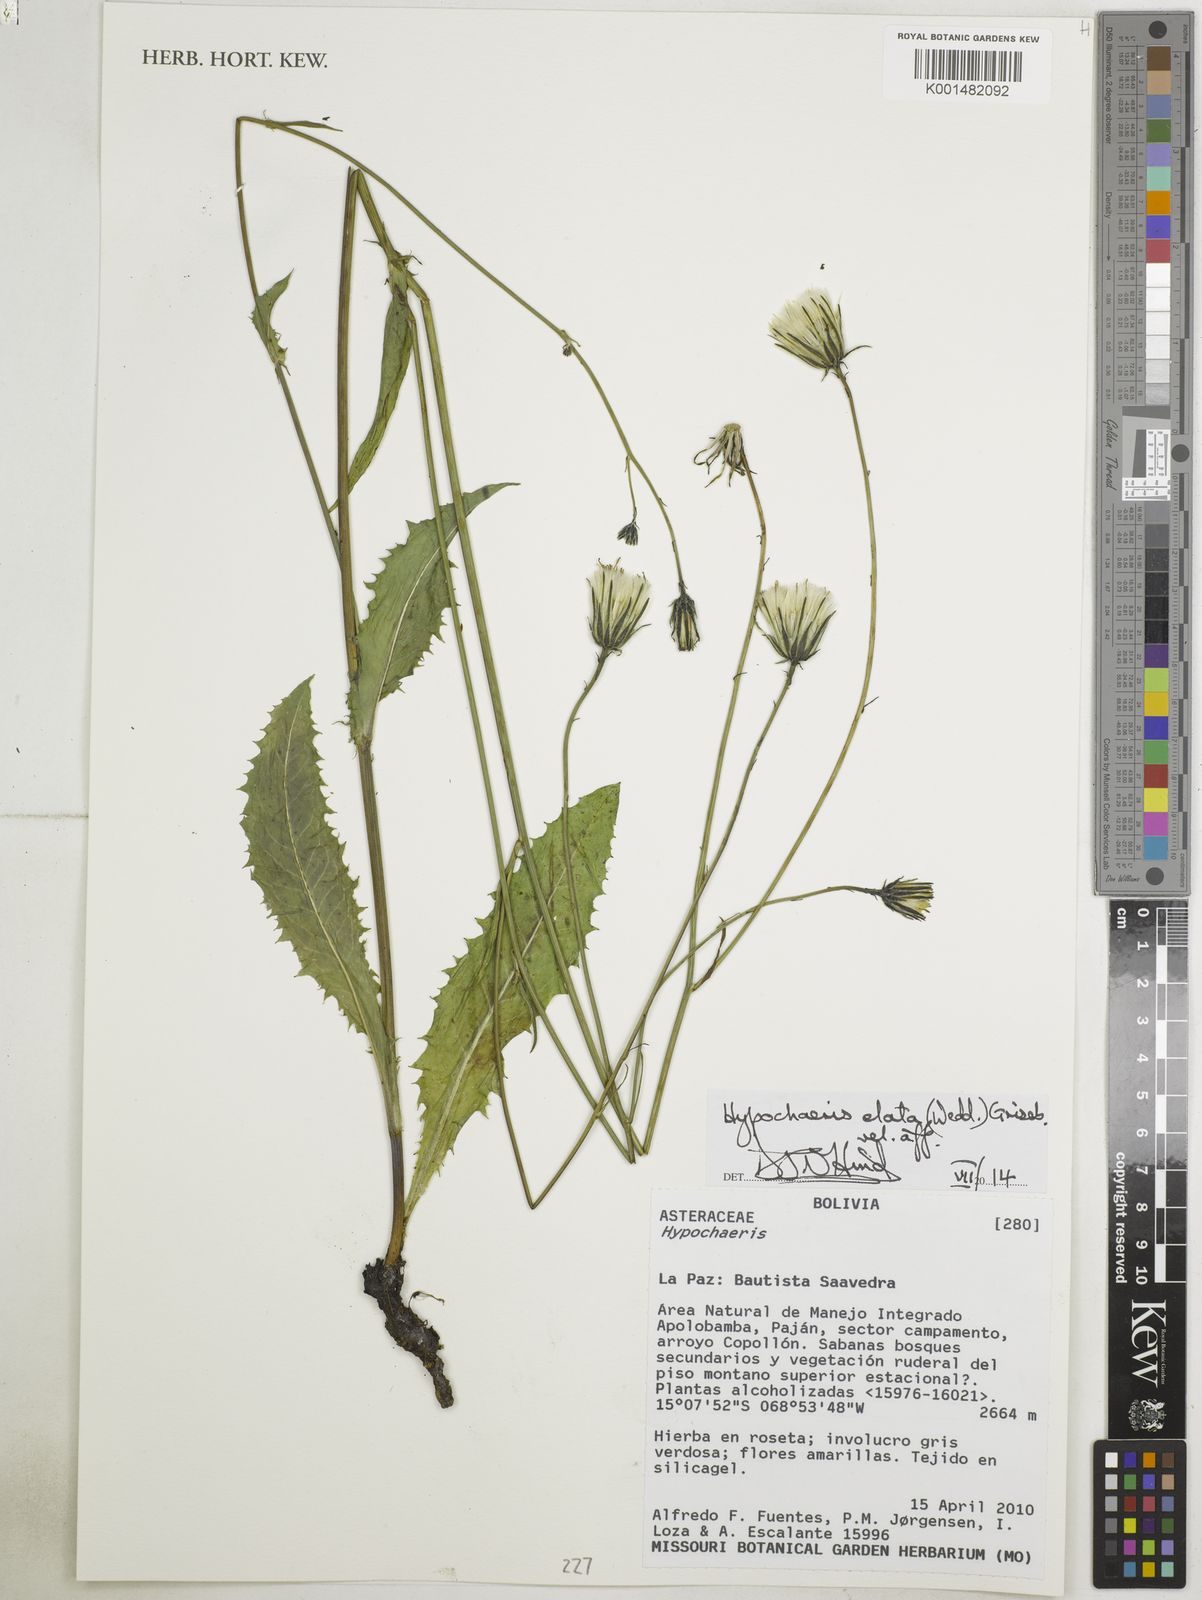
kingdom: Plantae
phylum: Tracheophyta
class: Magnoliopsida
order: Asterales
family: Asteraceae
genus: Hypochaeris
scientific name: Hypochaeris elata
